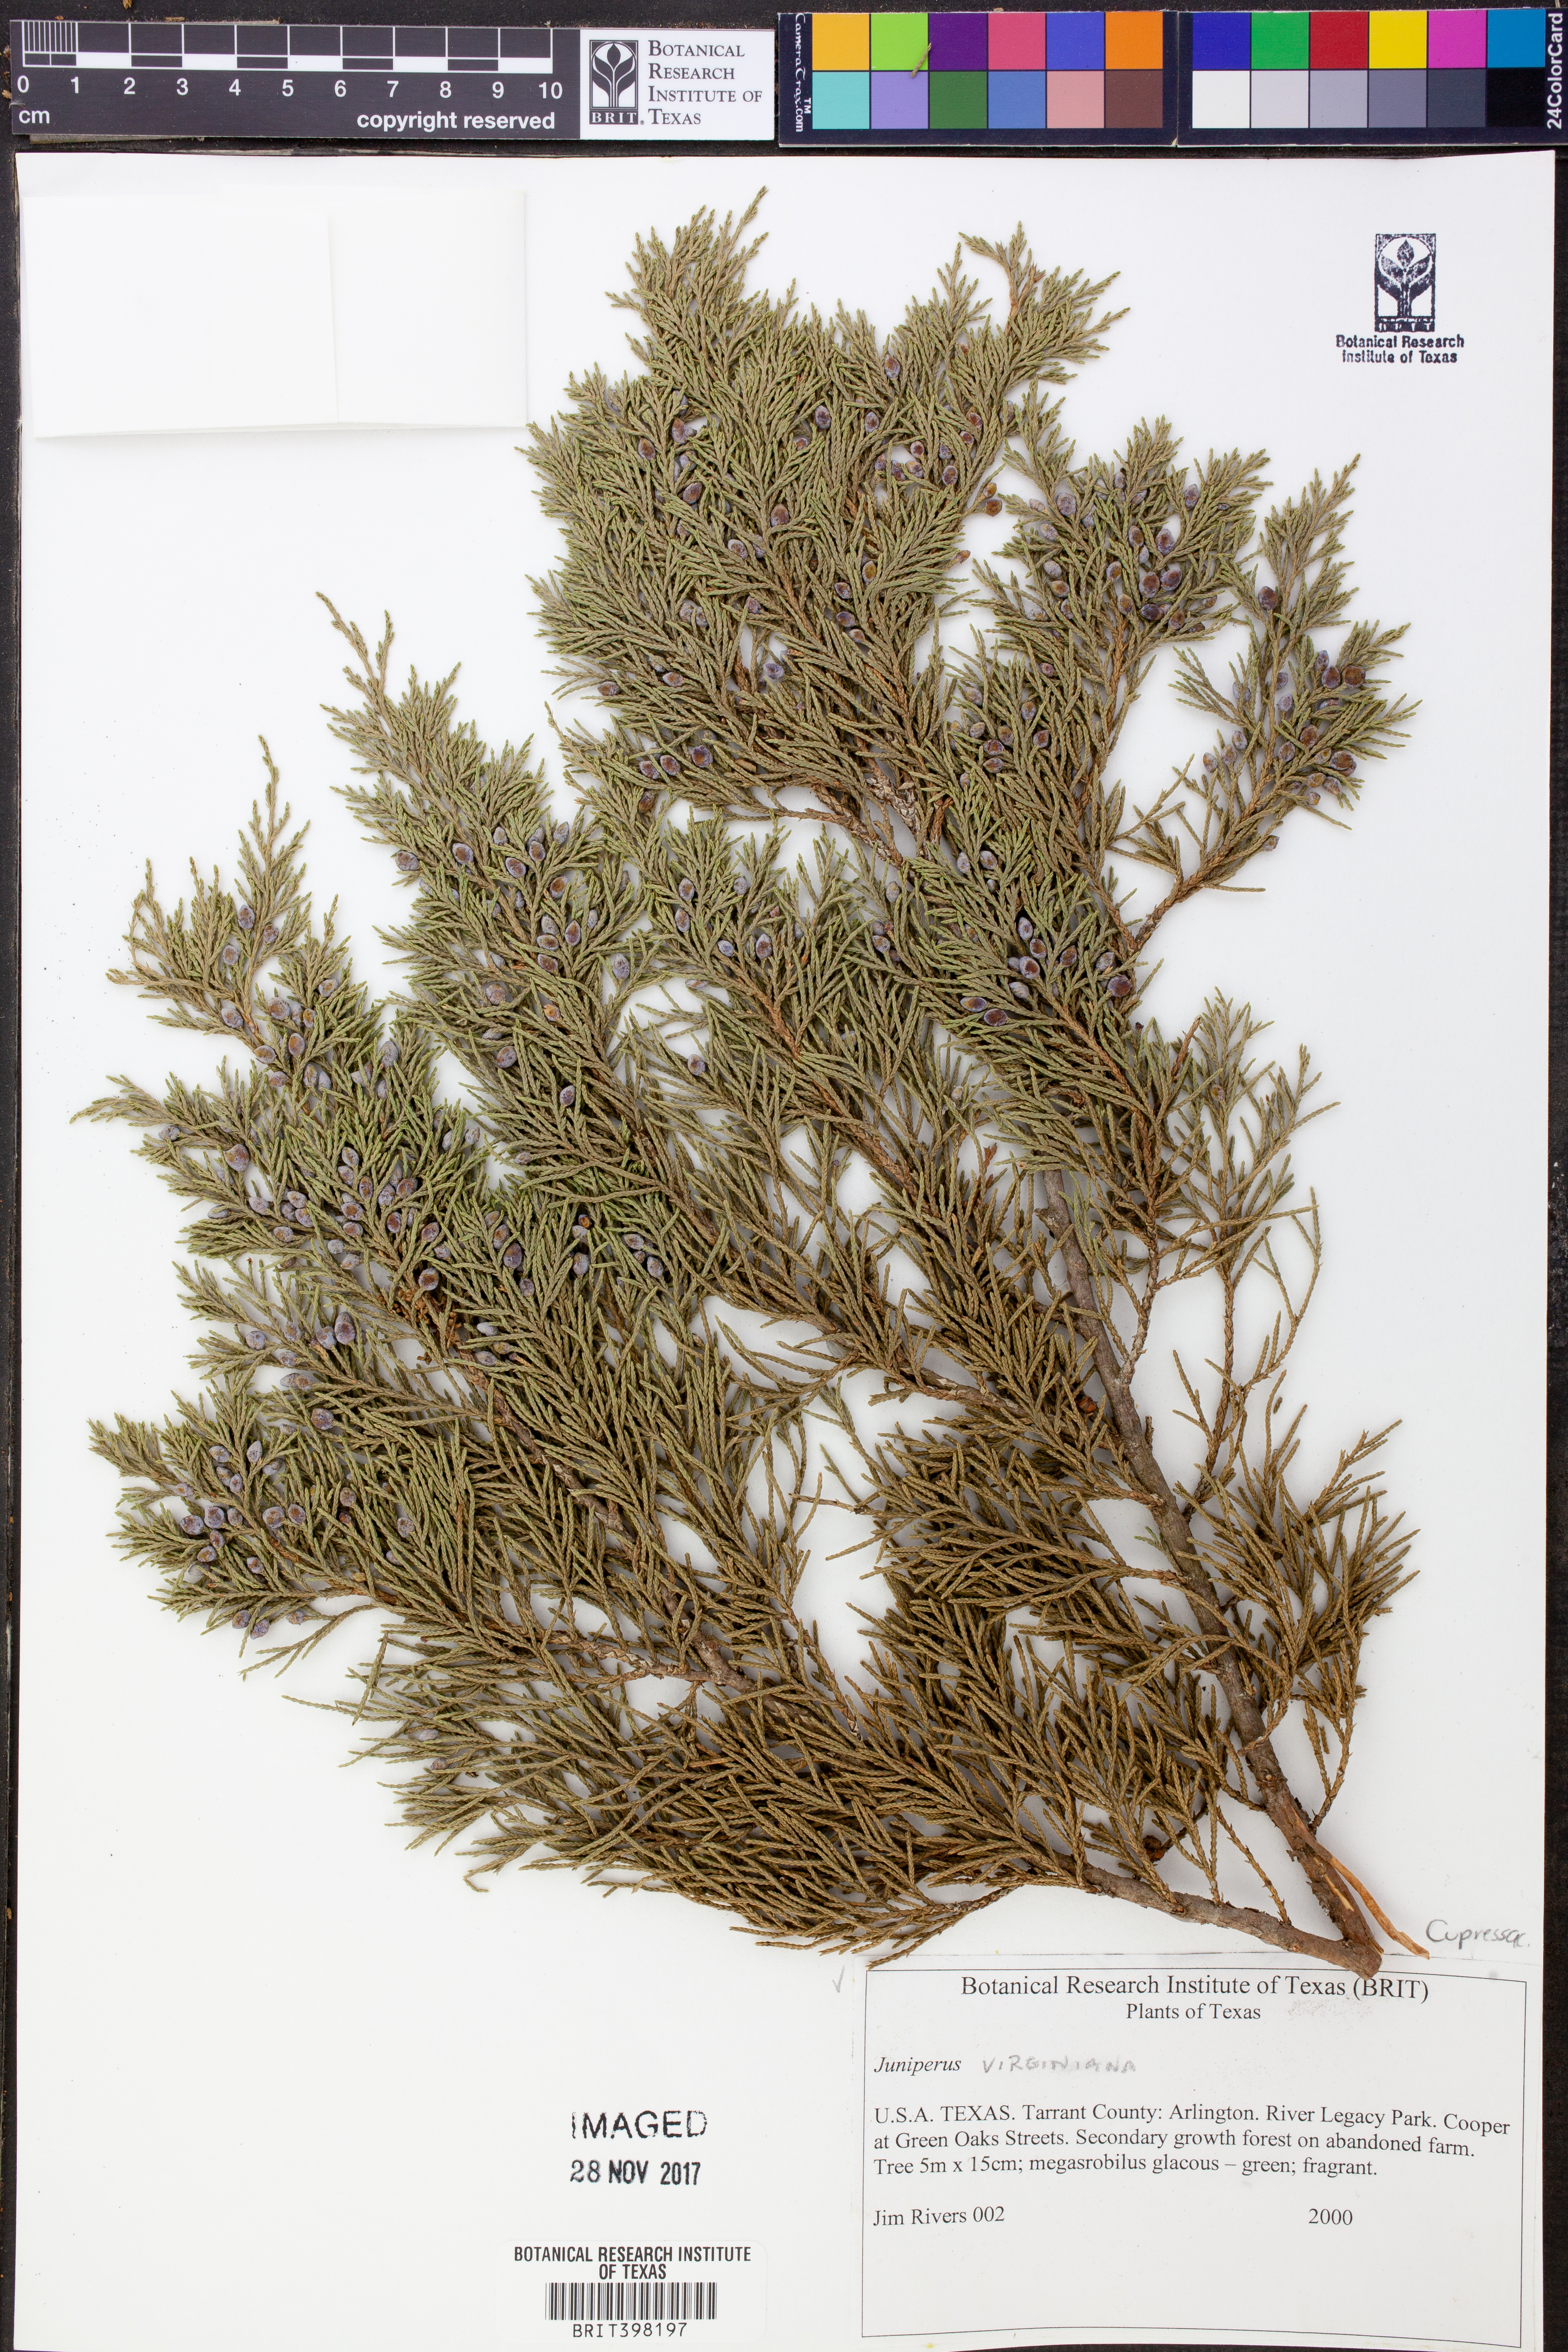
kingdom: Plantae
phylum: Tracheophyta
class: Pinopsida
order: Pinales
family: Cupressaceae
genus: Juniperus
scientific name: Juniperus virginiana
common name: Red juniper
